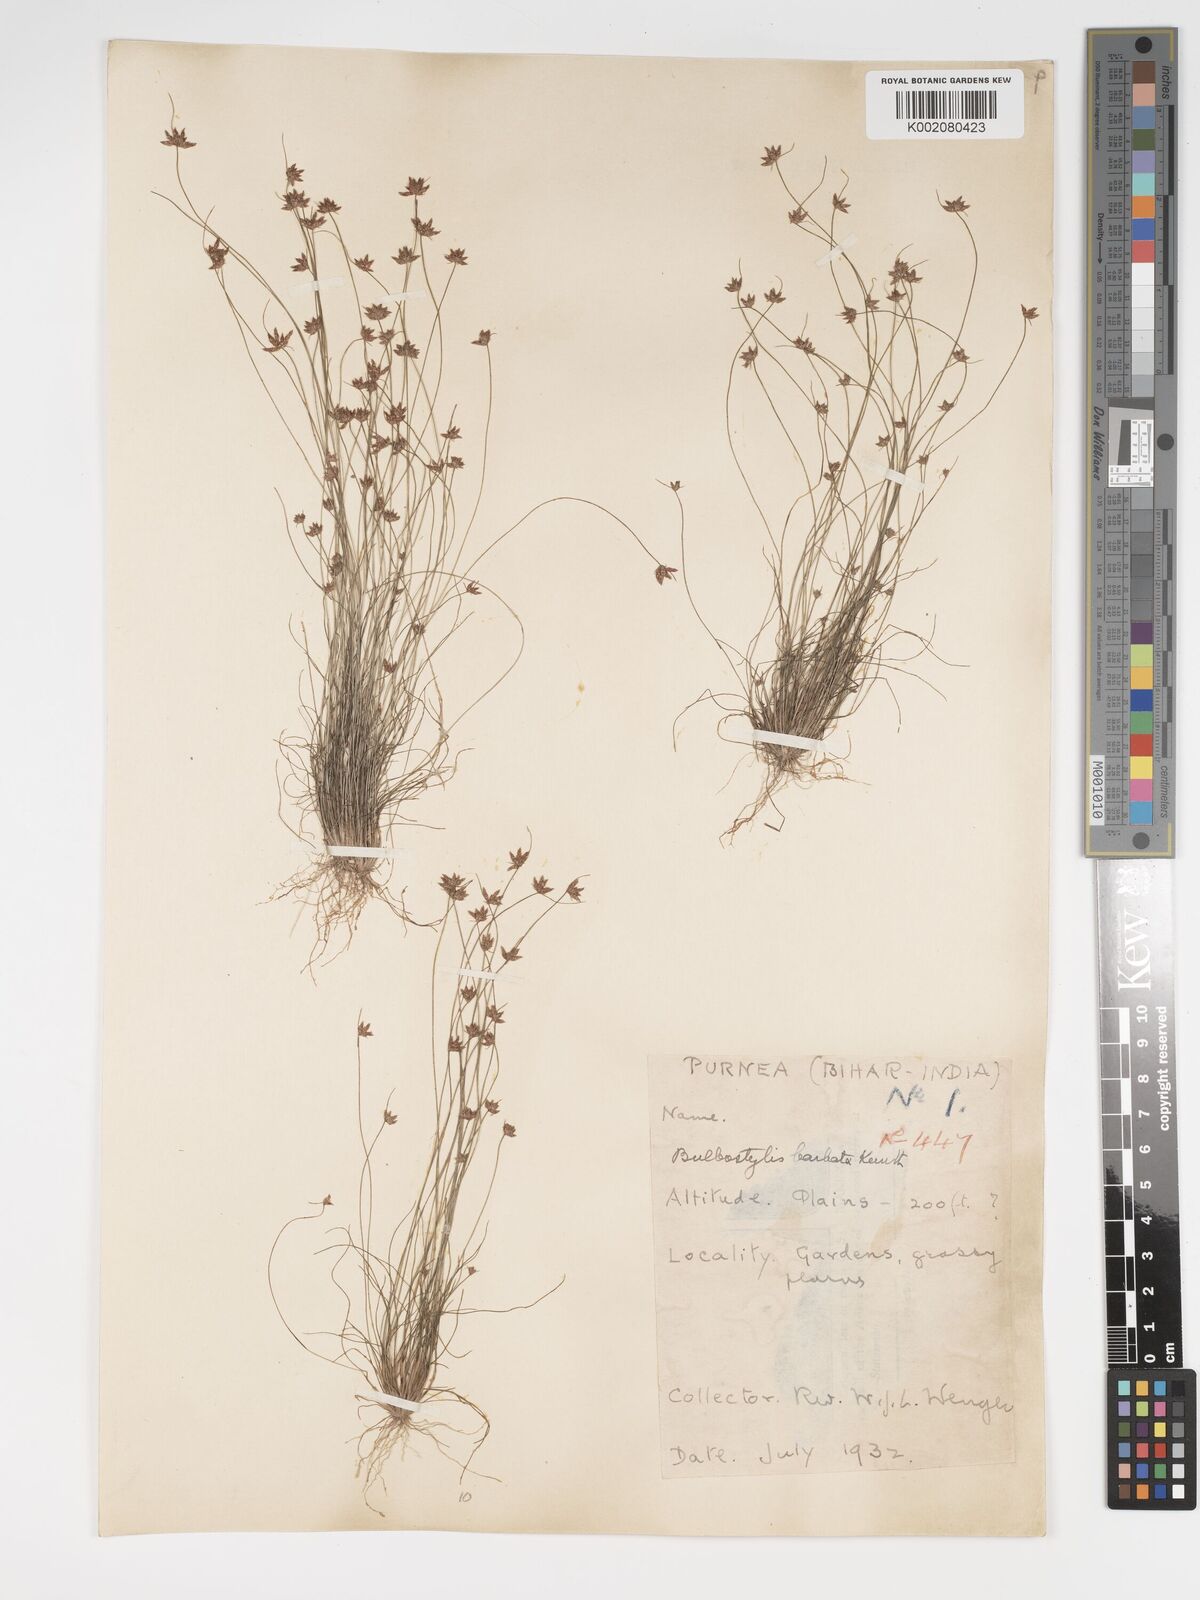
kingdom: Plantae
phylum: Tracheophyta
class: Liliopsida
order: Poales
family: Cyperaceae
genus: Bulbostylis
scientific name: Bulbostylis barbata
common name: Watergrass
